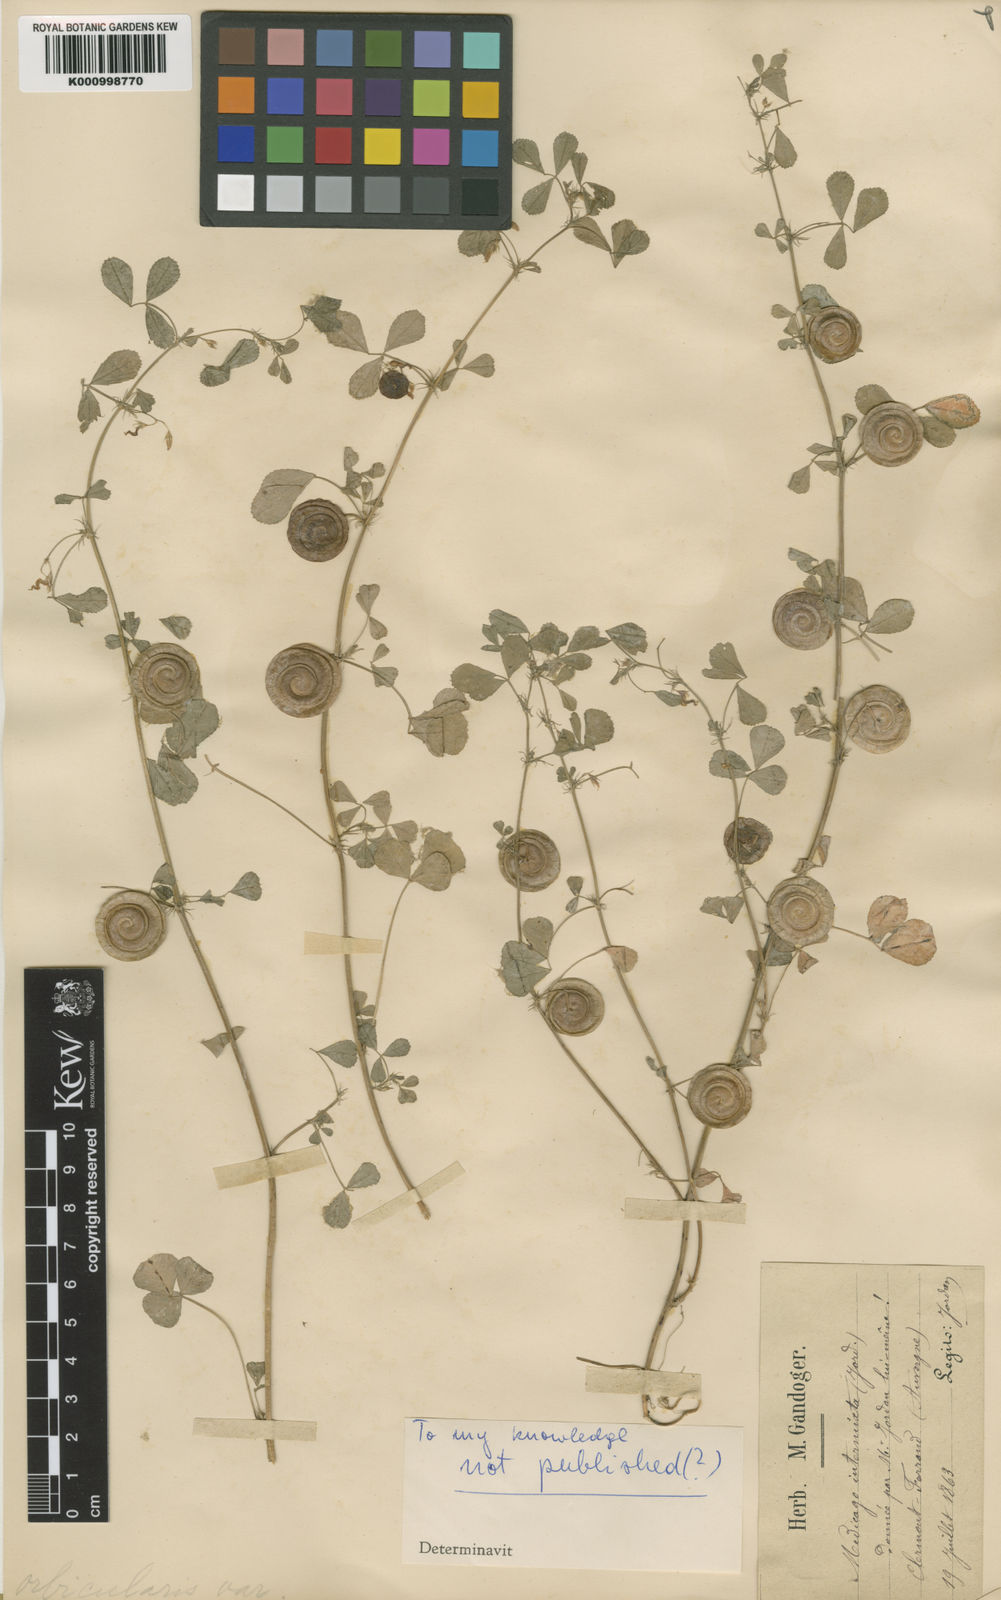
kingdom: Plantae
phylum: Tracheophyta
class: Magnoliopsida
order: Fabales
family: Fabaceae
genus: Medicago
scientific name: Medicago orbicularis
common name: Button medick
